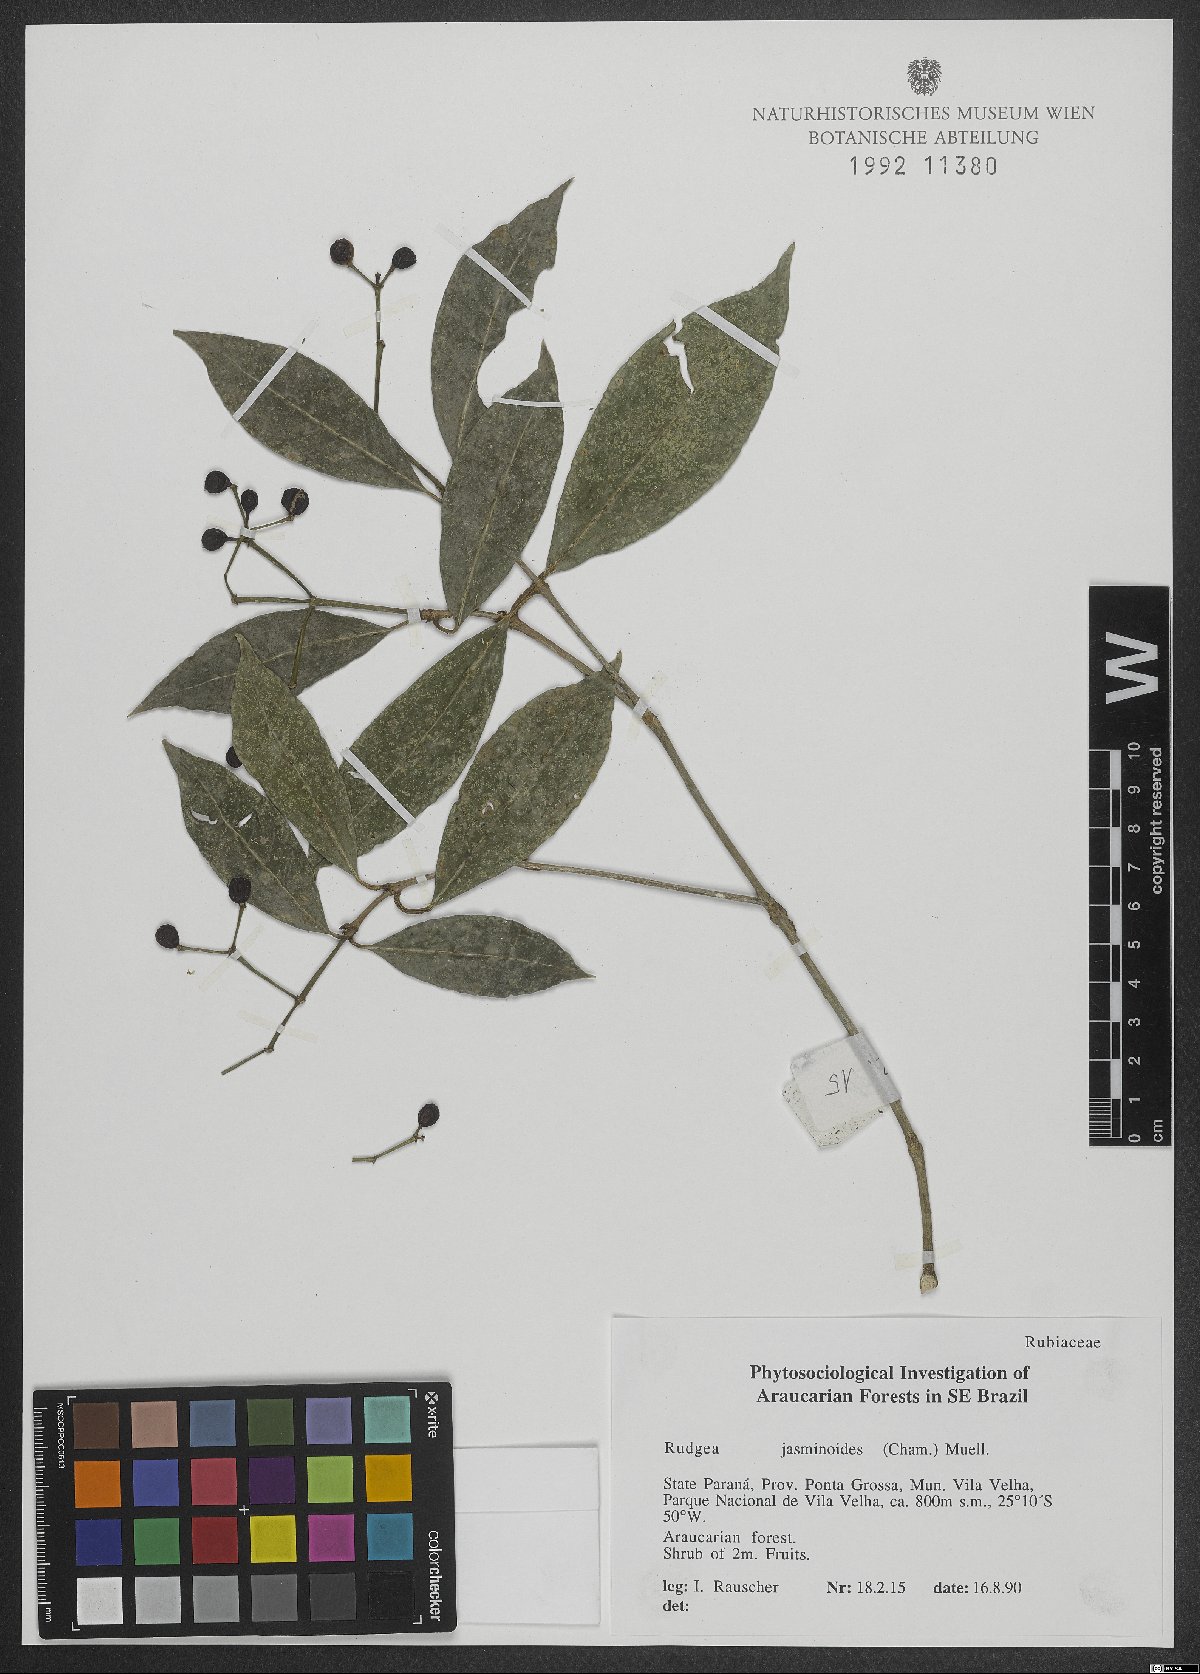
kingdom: Plantae
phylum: Tracheophyta
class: Magnoliopsida
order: Gentianales
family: Rubiaceae
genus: Rudgea
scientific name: Rudgea jasminoides
